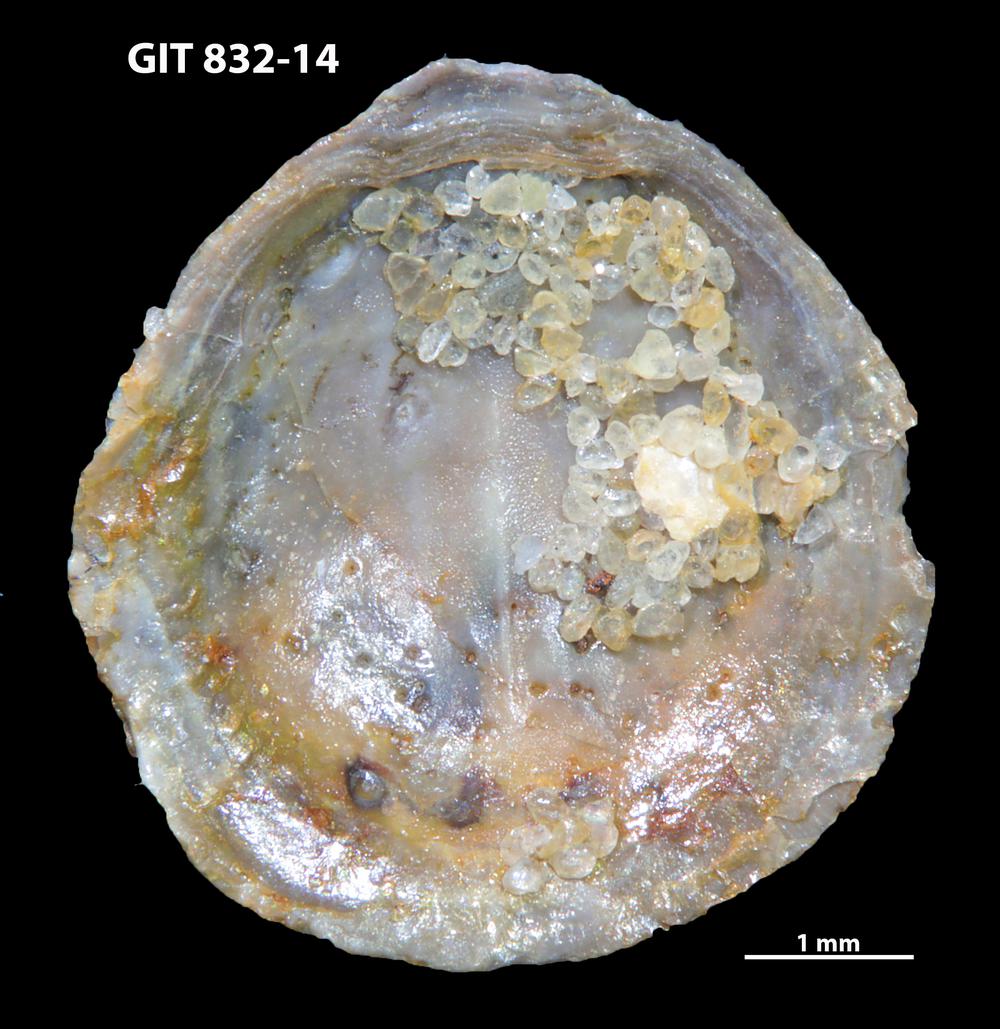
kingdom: Animalia
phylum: Brachiopoda
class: Lingulata
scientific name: Lingulata
